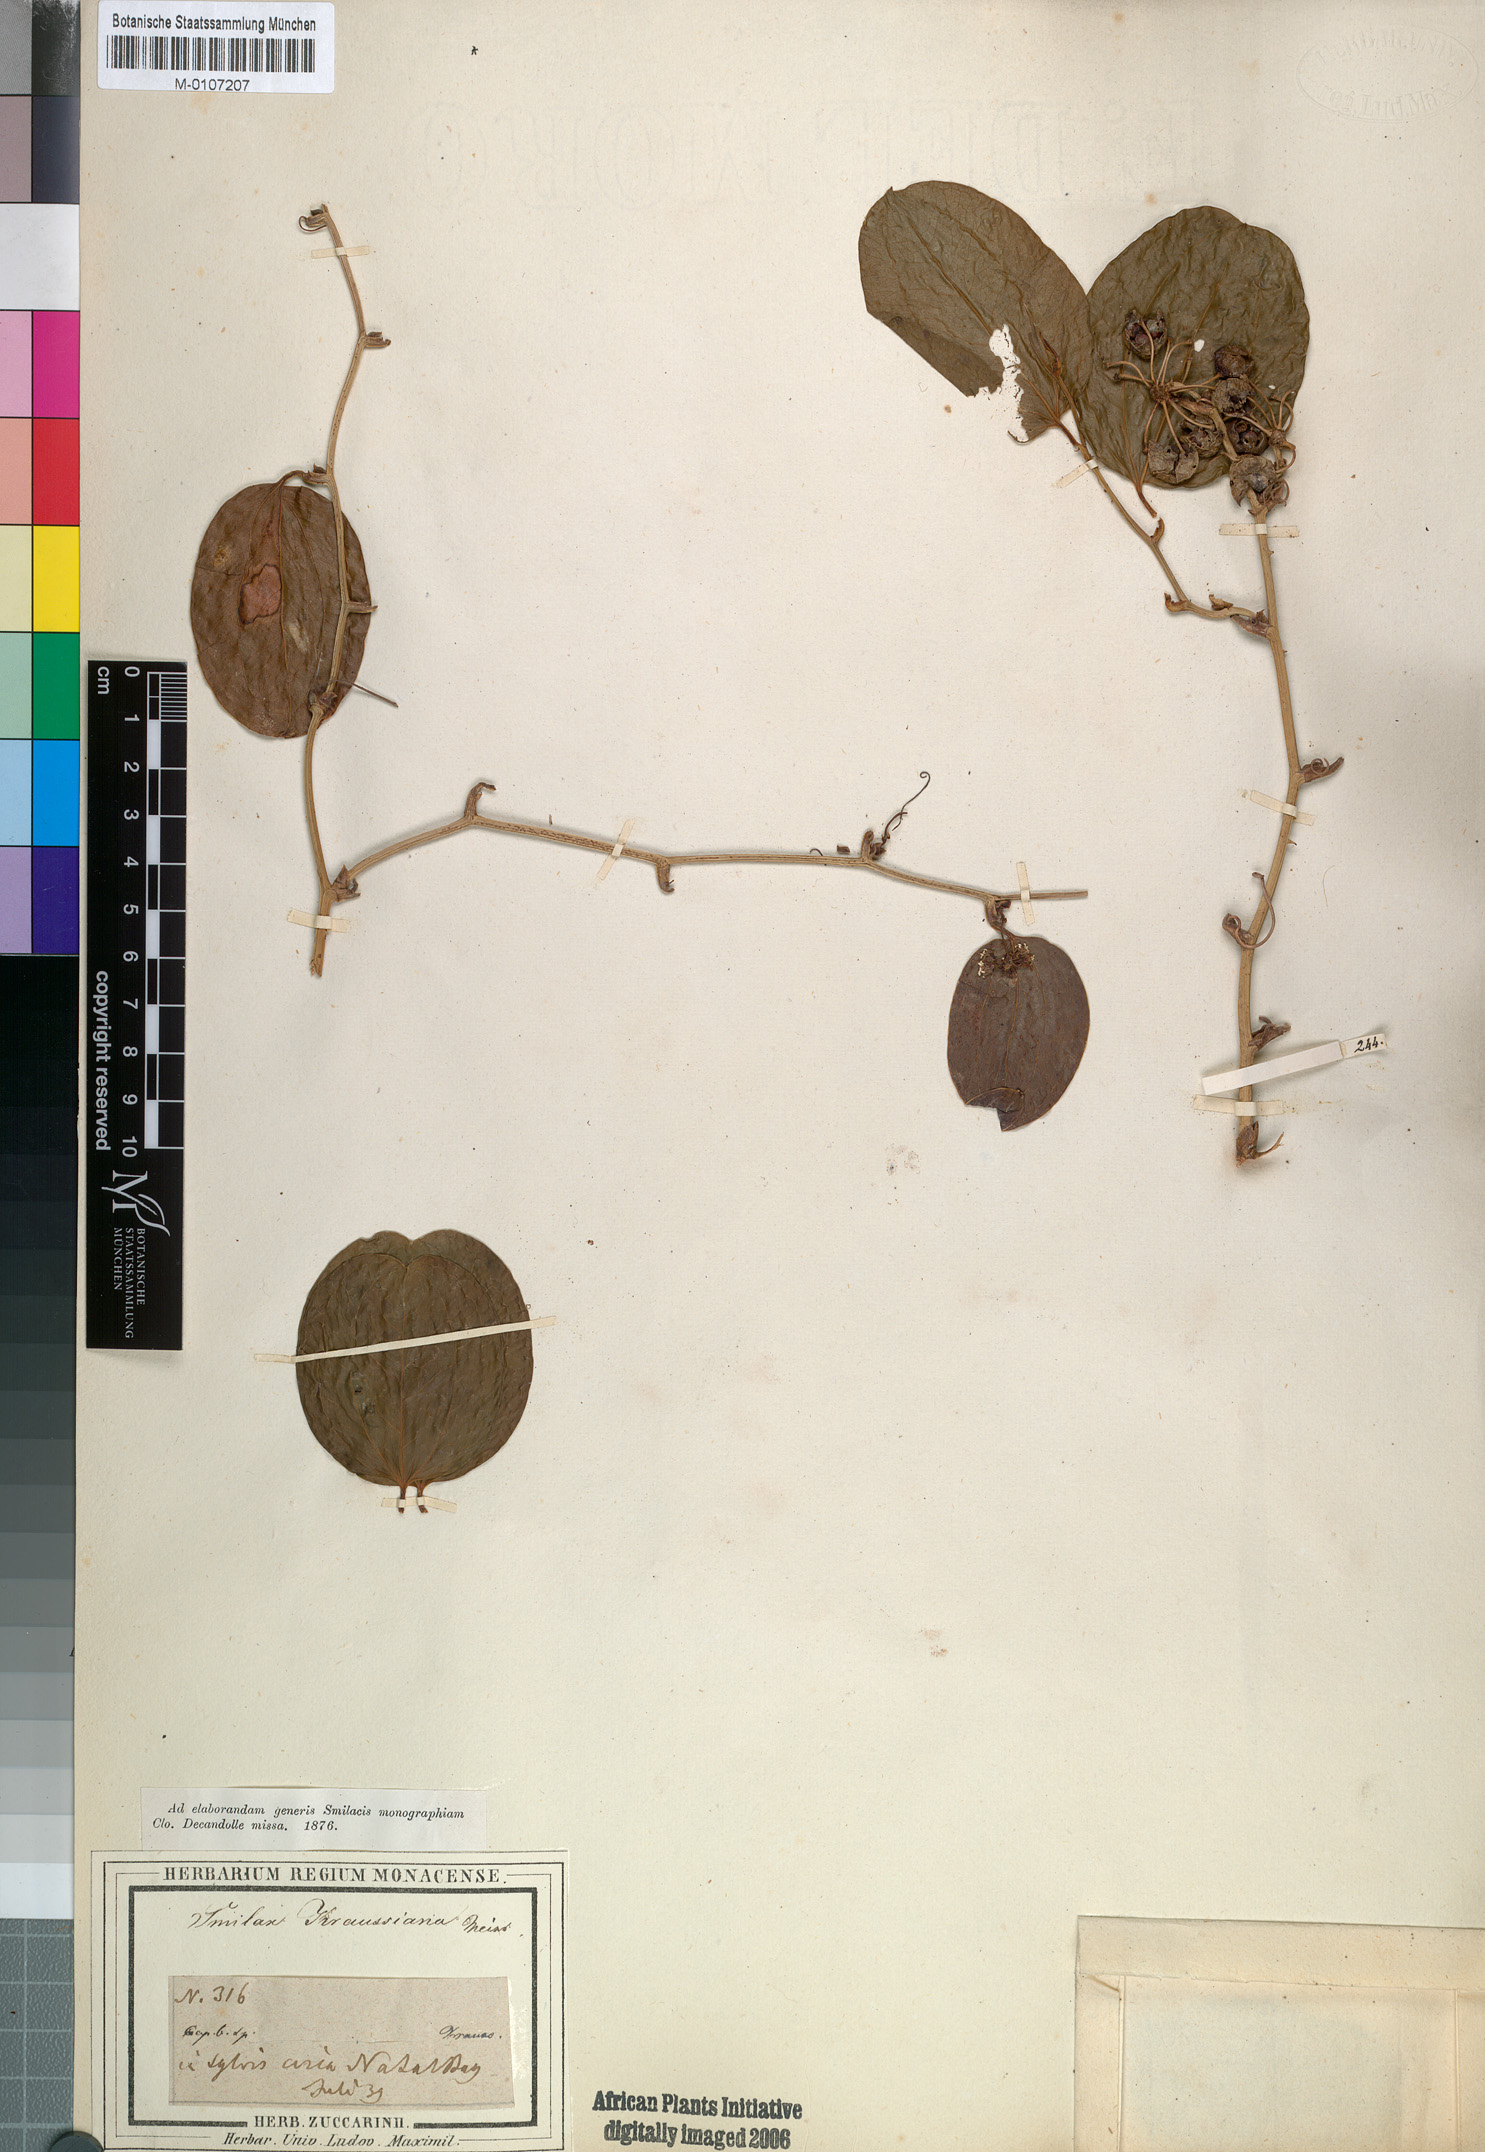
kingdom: Plantae
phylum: Tracheophyta
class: Liliopsida
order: Liliales
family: Smilacaceae
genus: Smilax
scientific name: Smilax anceps
